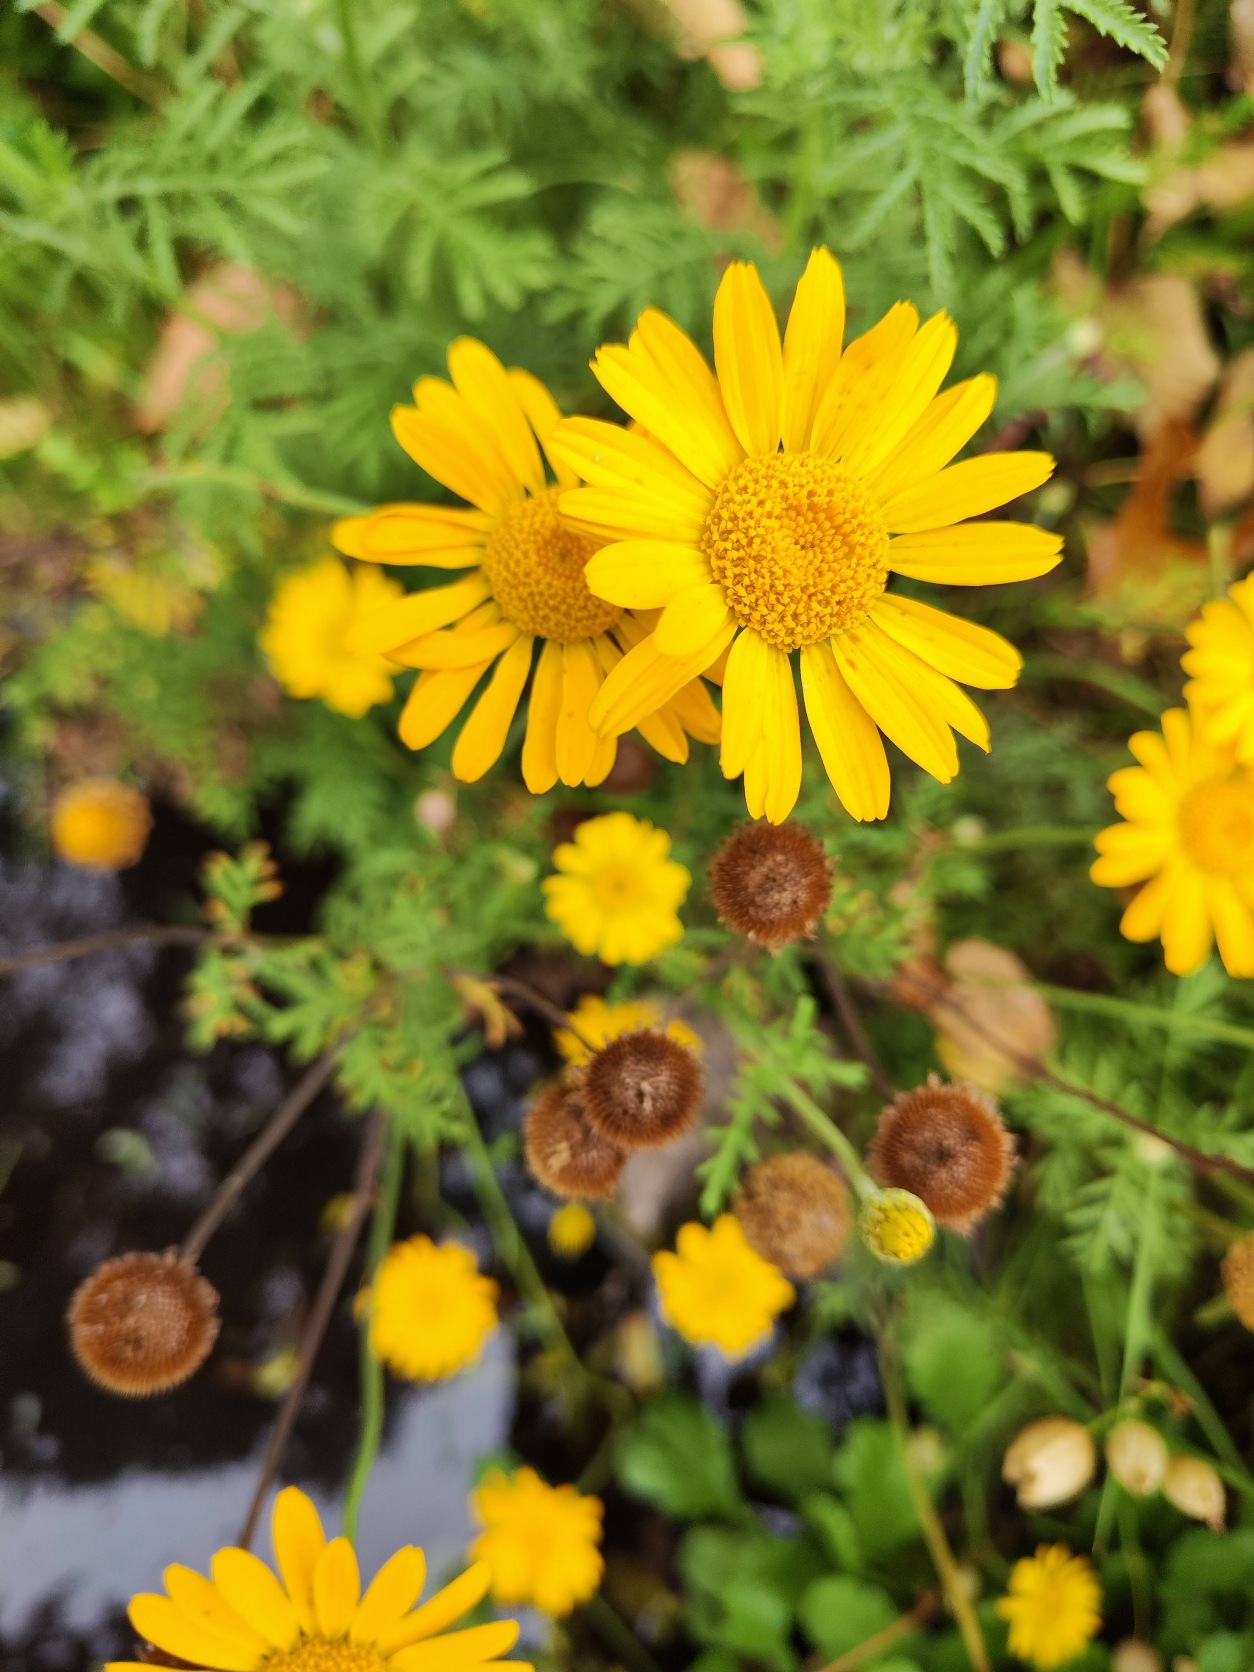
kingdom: Plantae
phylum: Tracheophyta
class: Magnoliopsida
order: Asterales
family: Asteraceae
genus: Cota
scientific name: Cota tinctoria
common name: Farve-gåseurt
